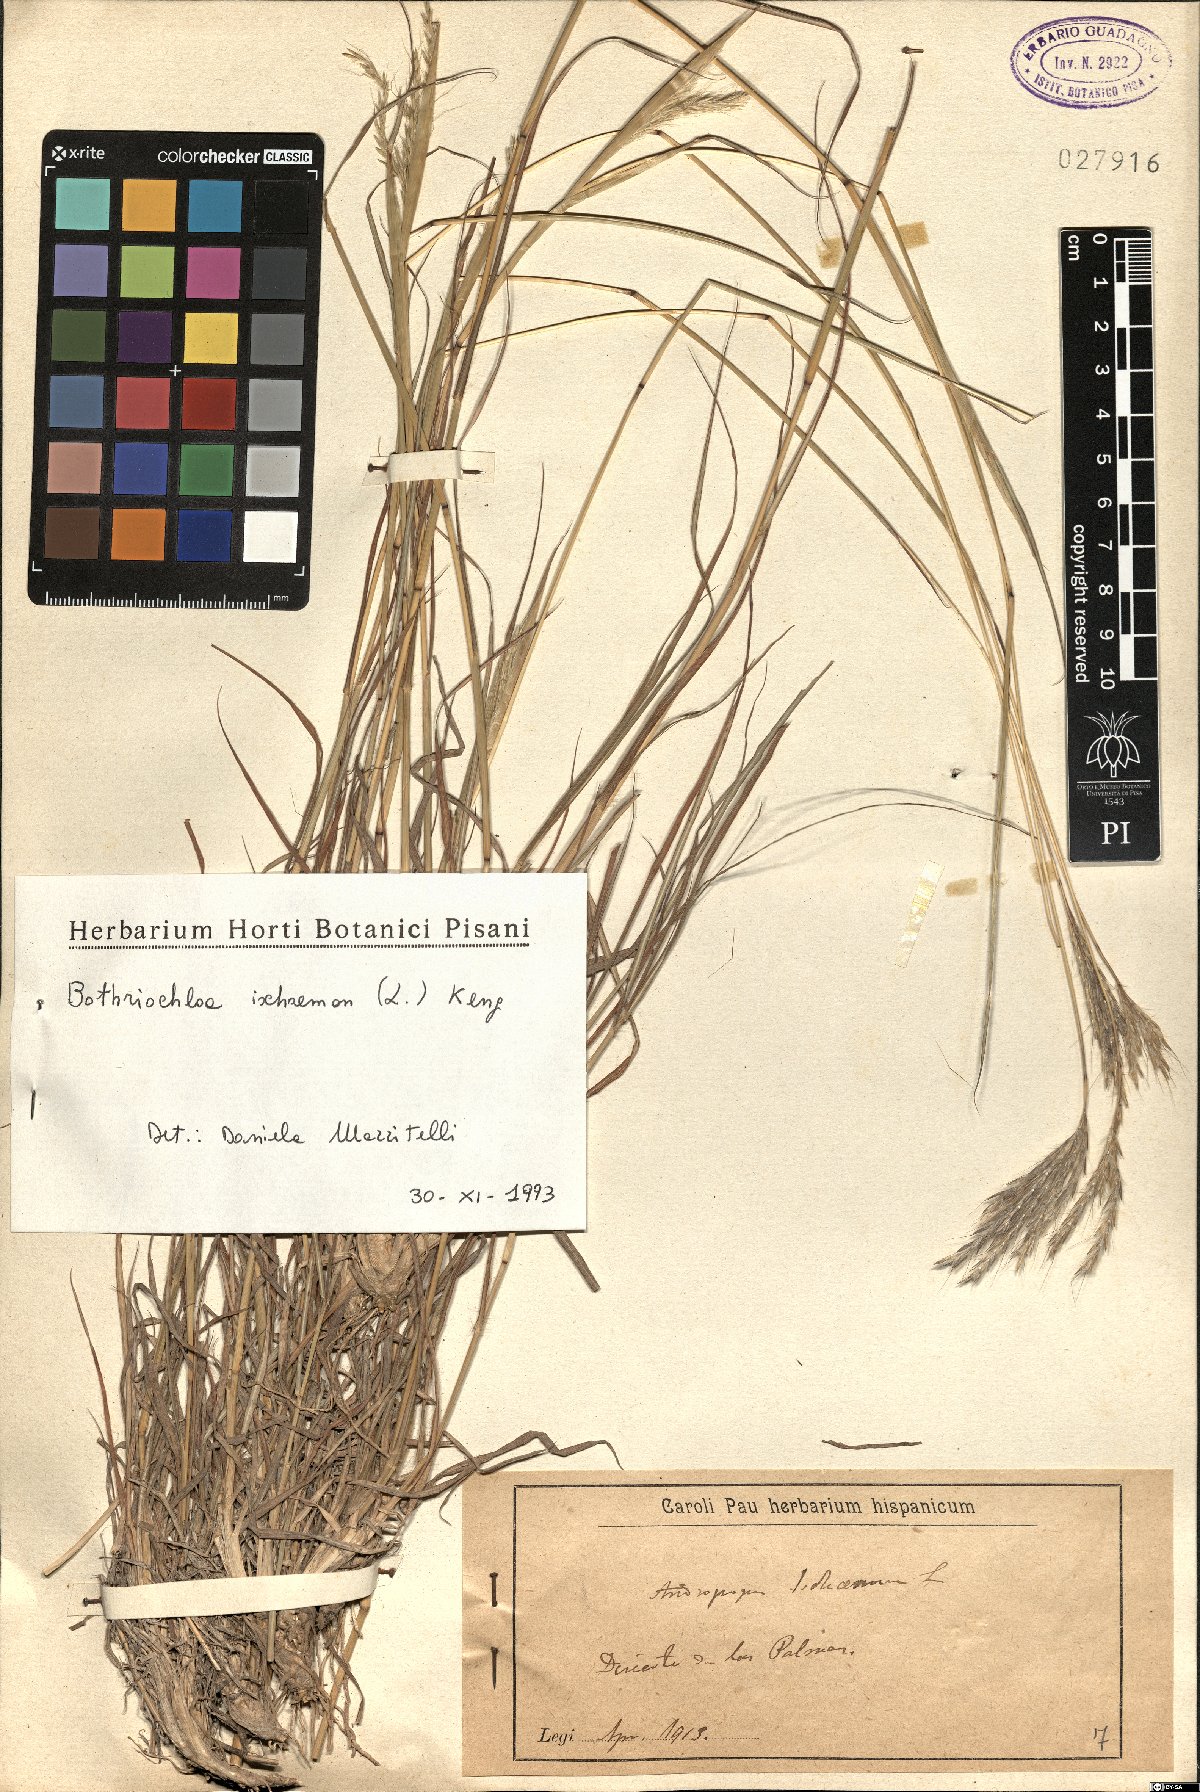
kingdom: Plantae
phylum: Tracheophyta
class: Liliopsida
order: Poales
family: Poaceae
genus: Bothriochloa
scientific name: Bothriochloa ischaemum
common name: Yellow bluestem
